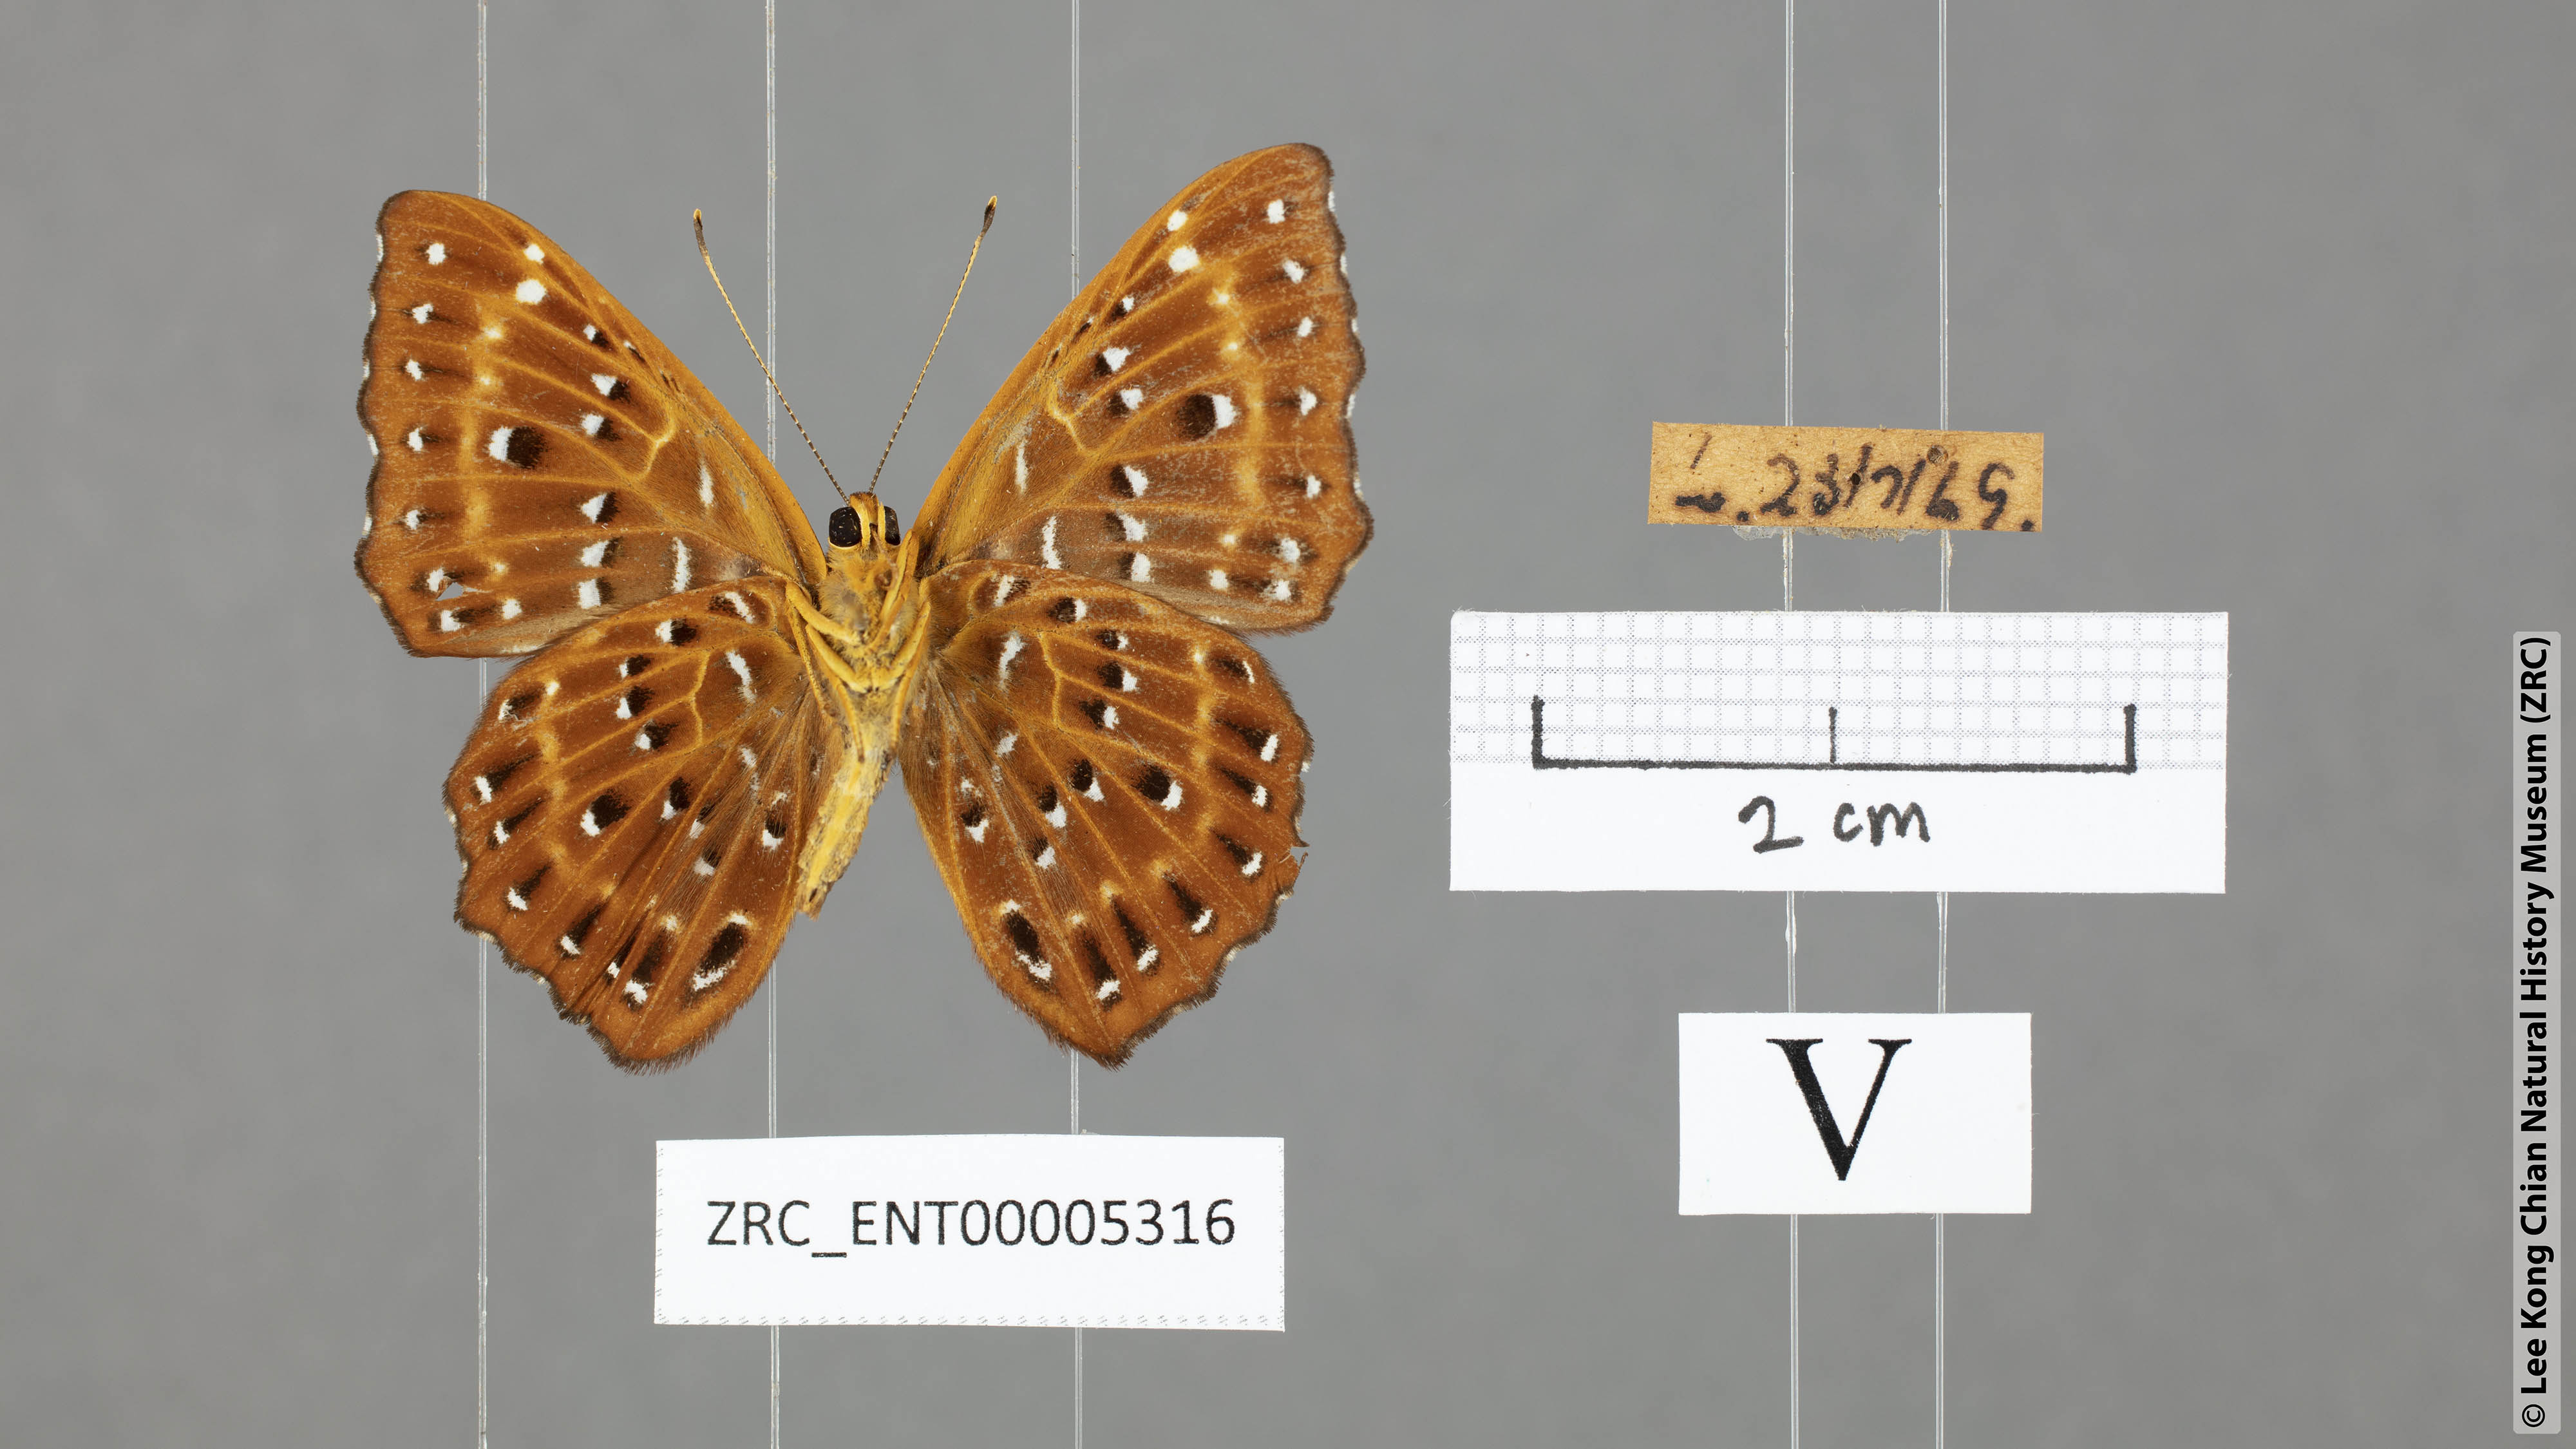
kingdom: Animalia
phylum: Arthropoda
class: Insecta
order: Lepidoptera
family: Riodinidae
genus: Zemeros
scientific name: Zemeros flegyas
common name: Punchinello
